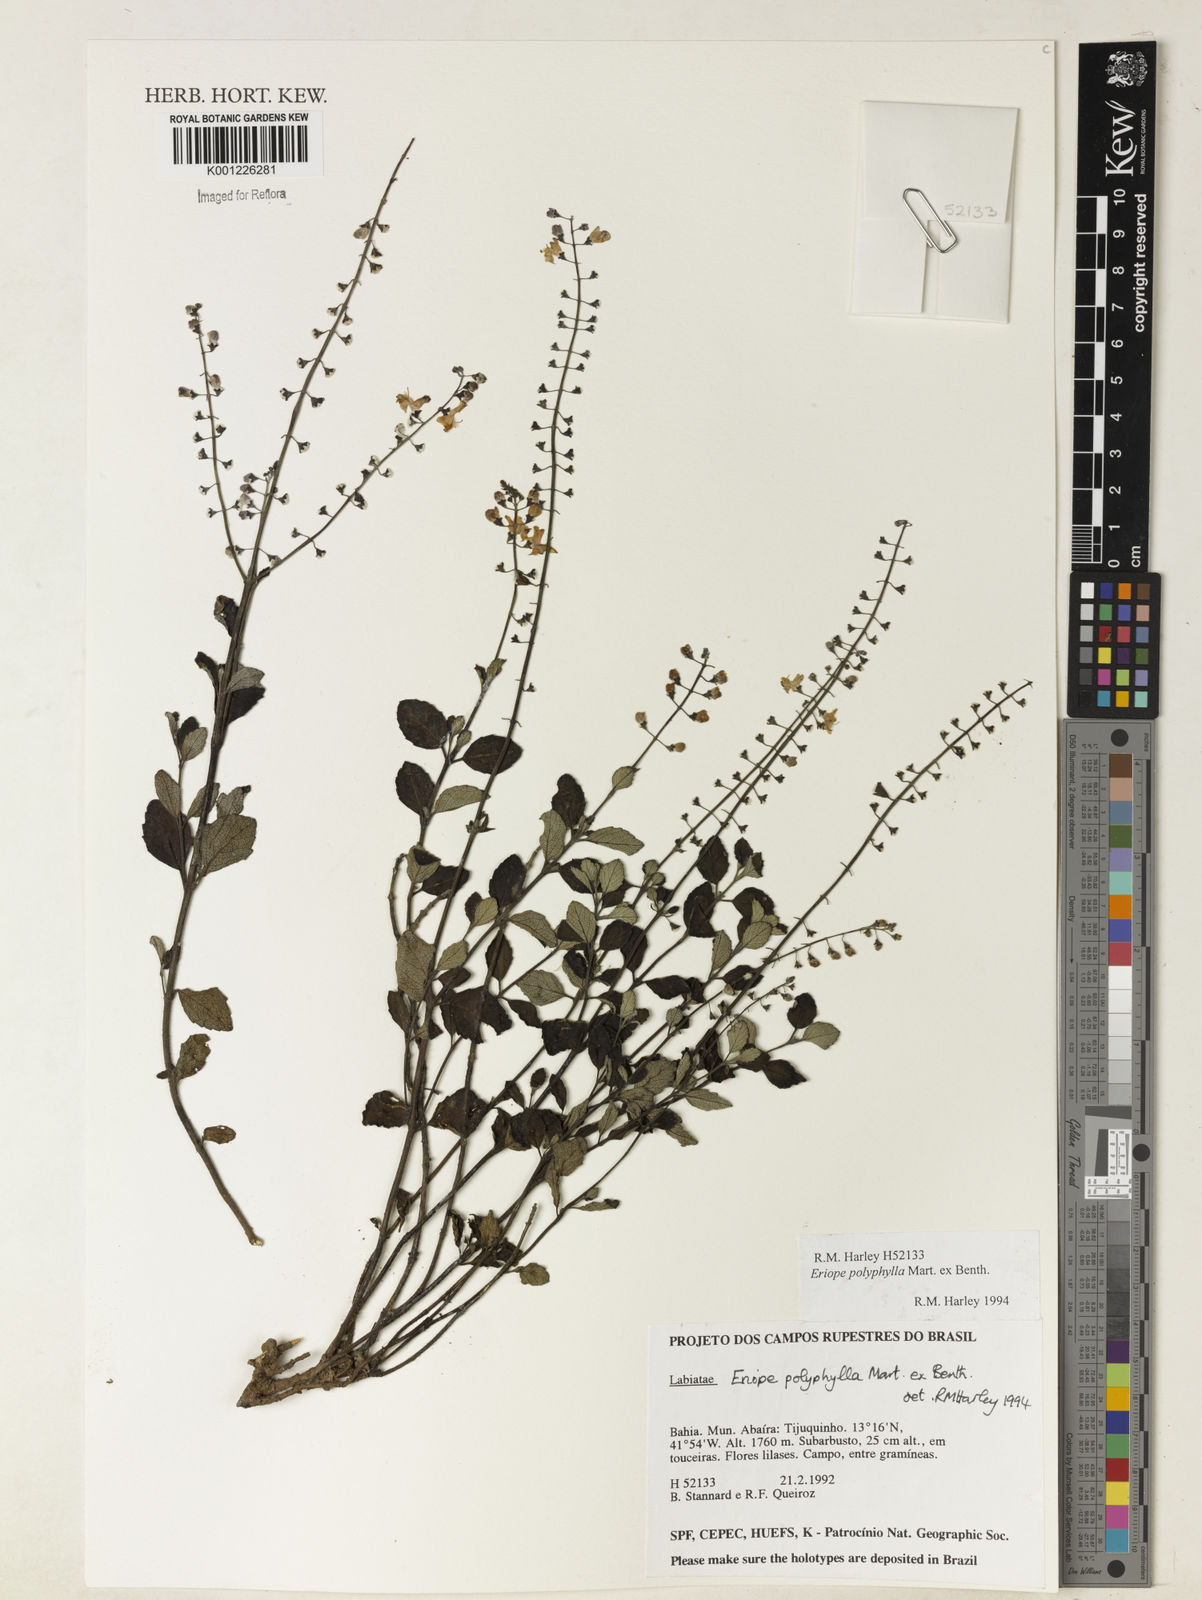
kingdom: Plantae
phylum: Tracheophyta
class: Magnoliopsida
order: Lamiales
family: Lamiaceae
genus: Eriope
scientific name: Eriope polyphylla
